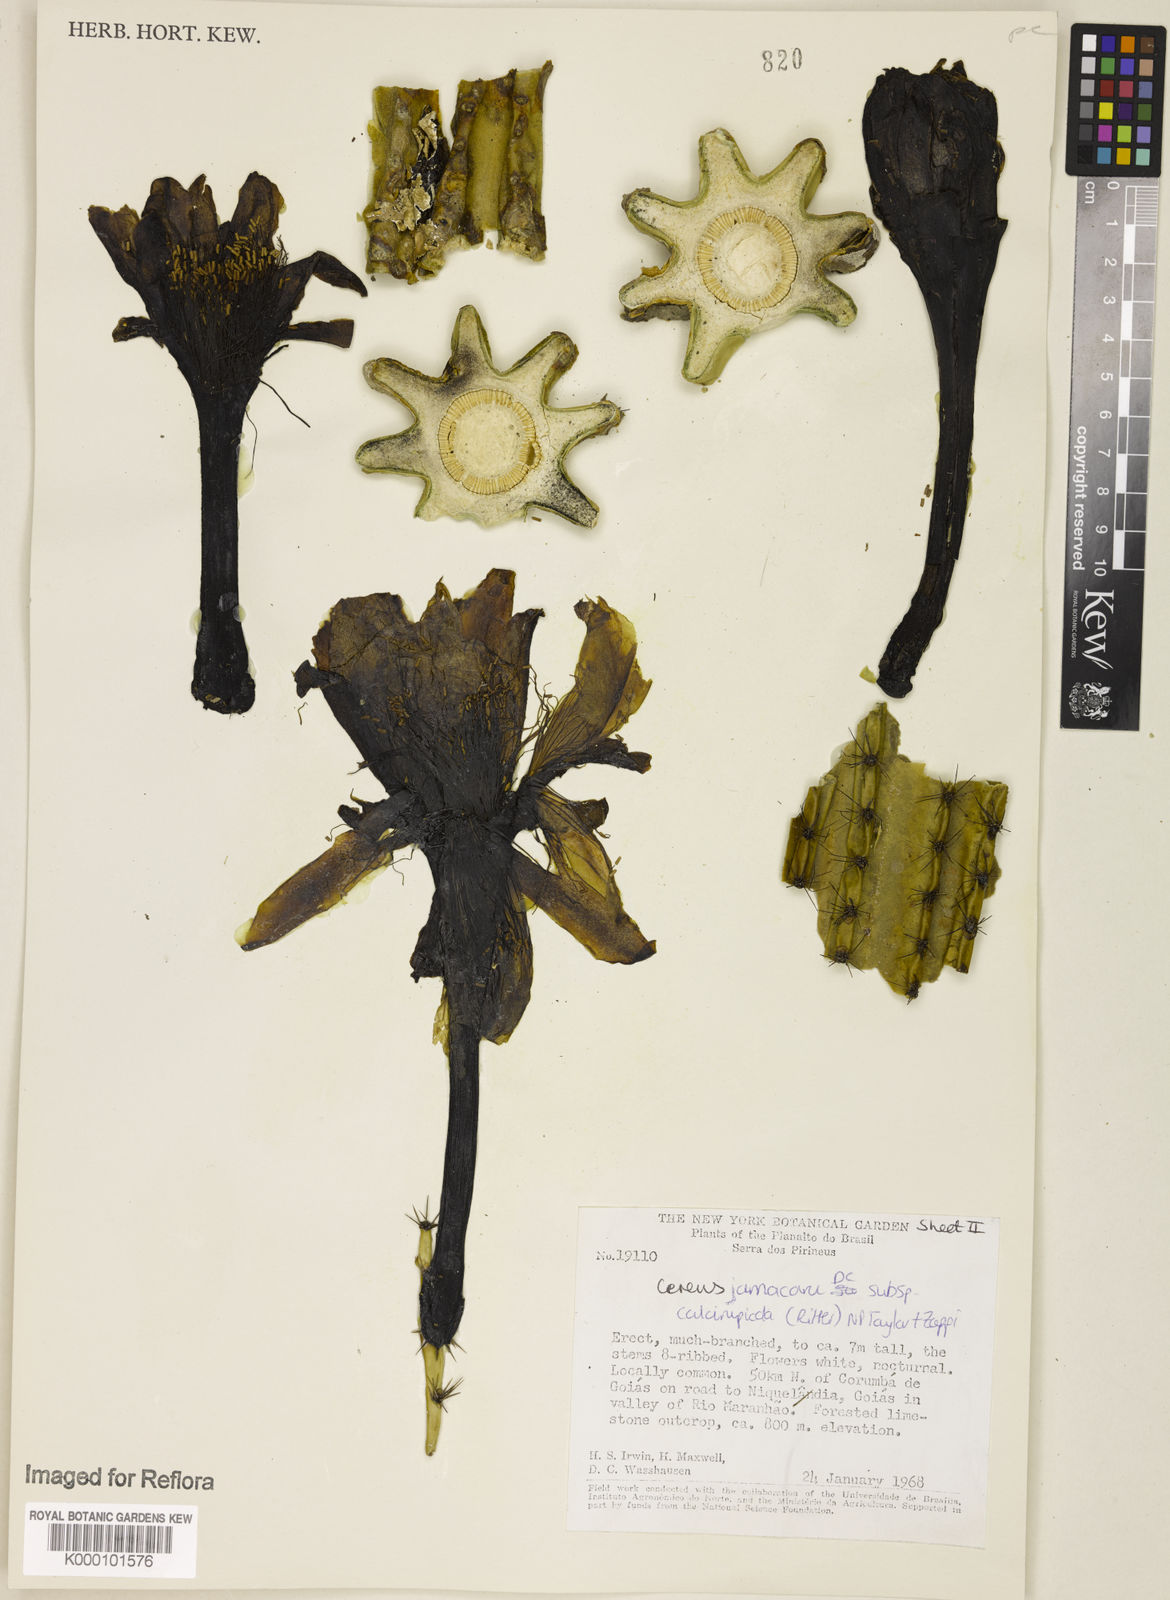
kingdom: Plantae
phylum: Tracheophyta
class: Magnoliopsida
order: Caryophyllales
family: Cactaceae
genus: Cereus
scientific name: Cereus jamacaru
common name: Queen-of-the-night
